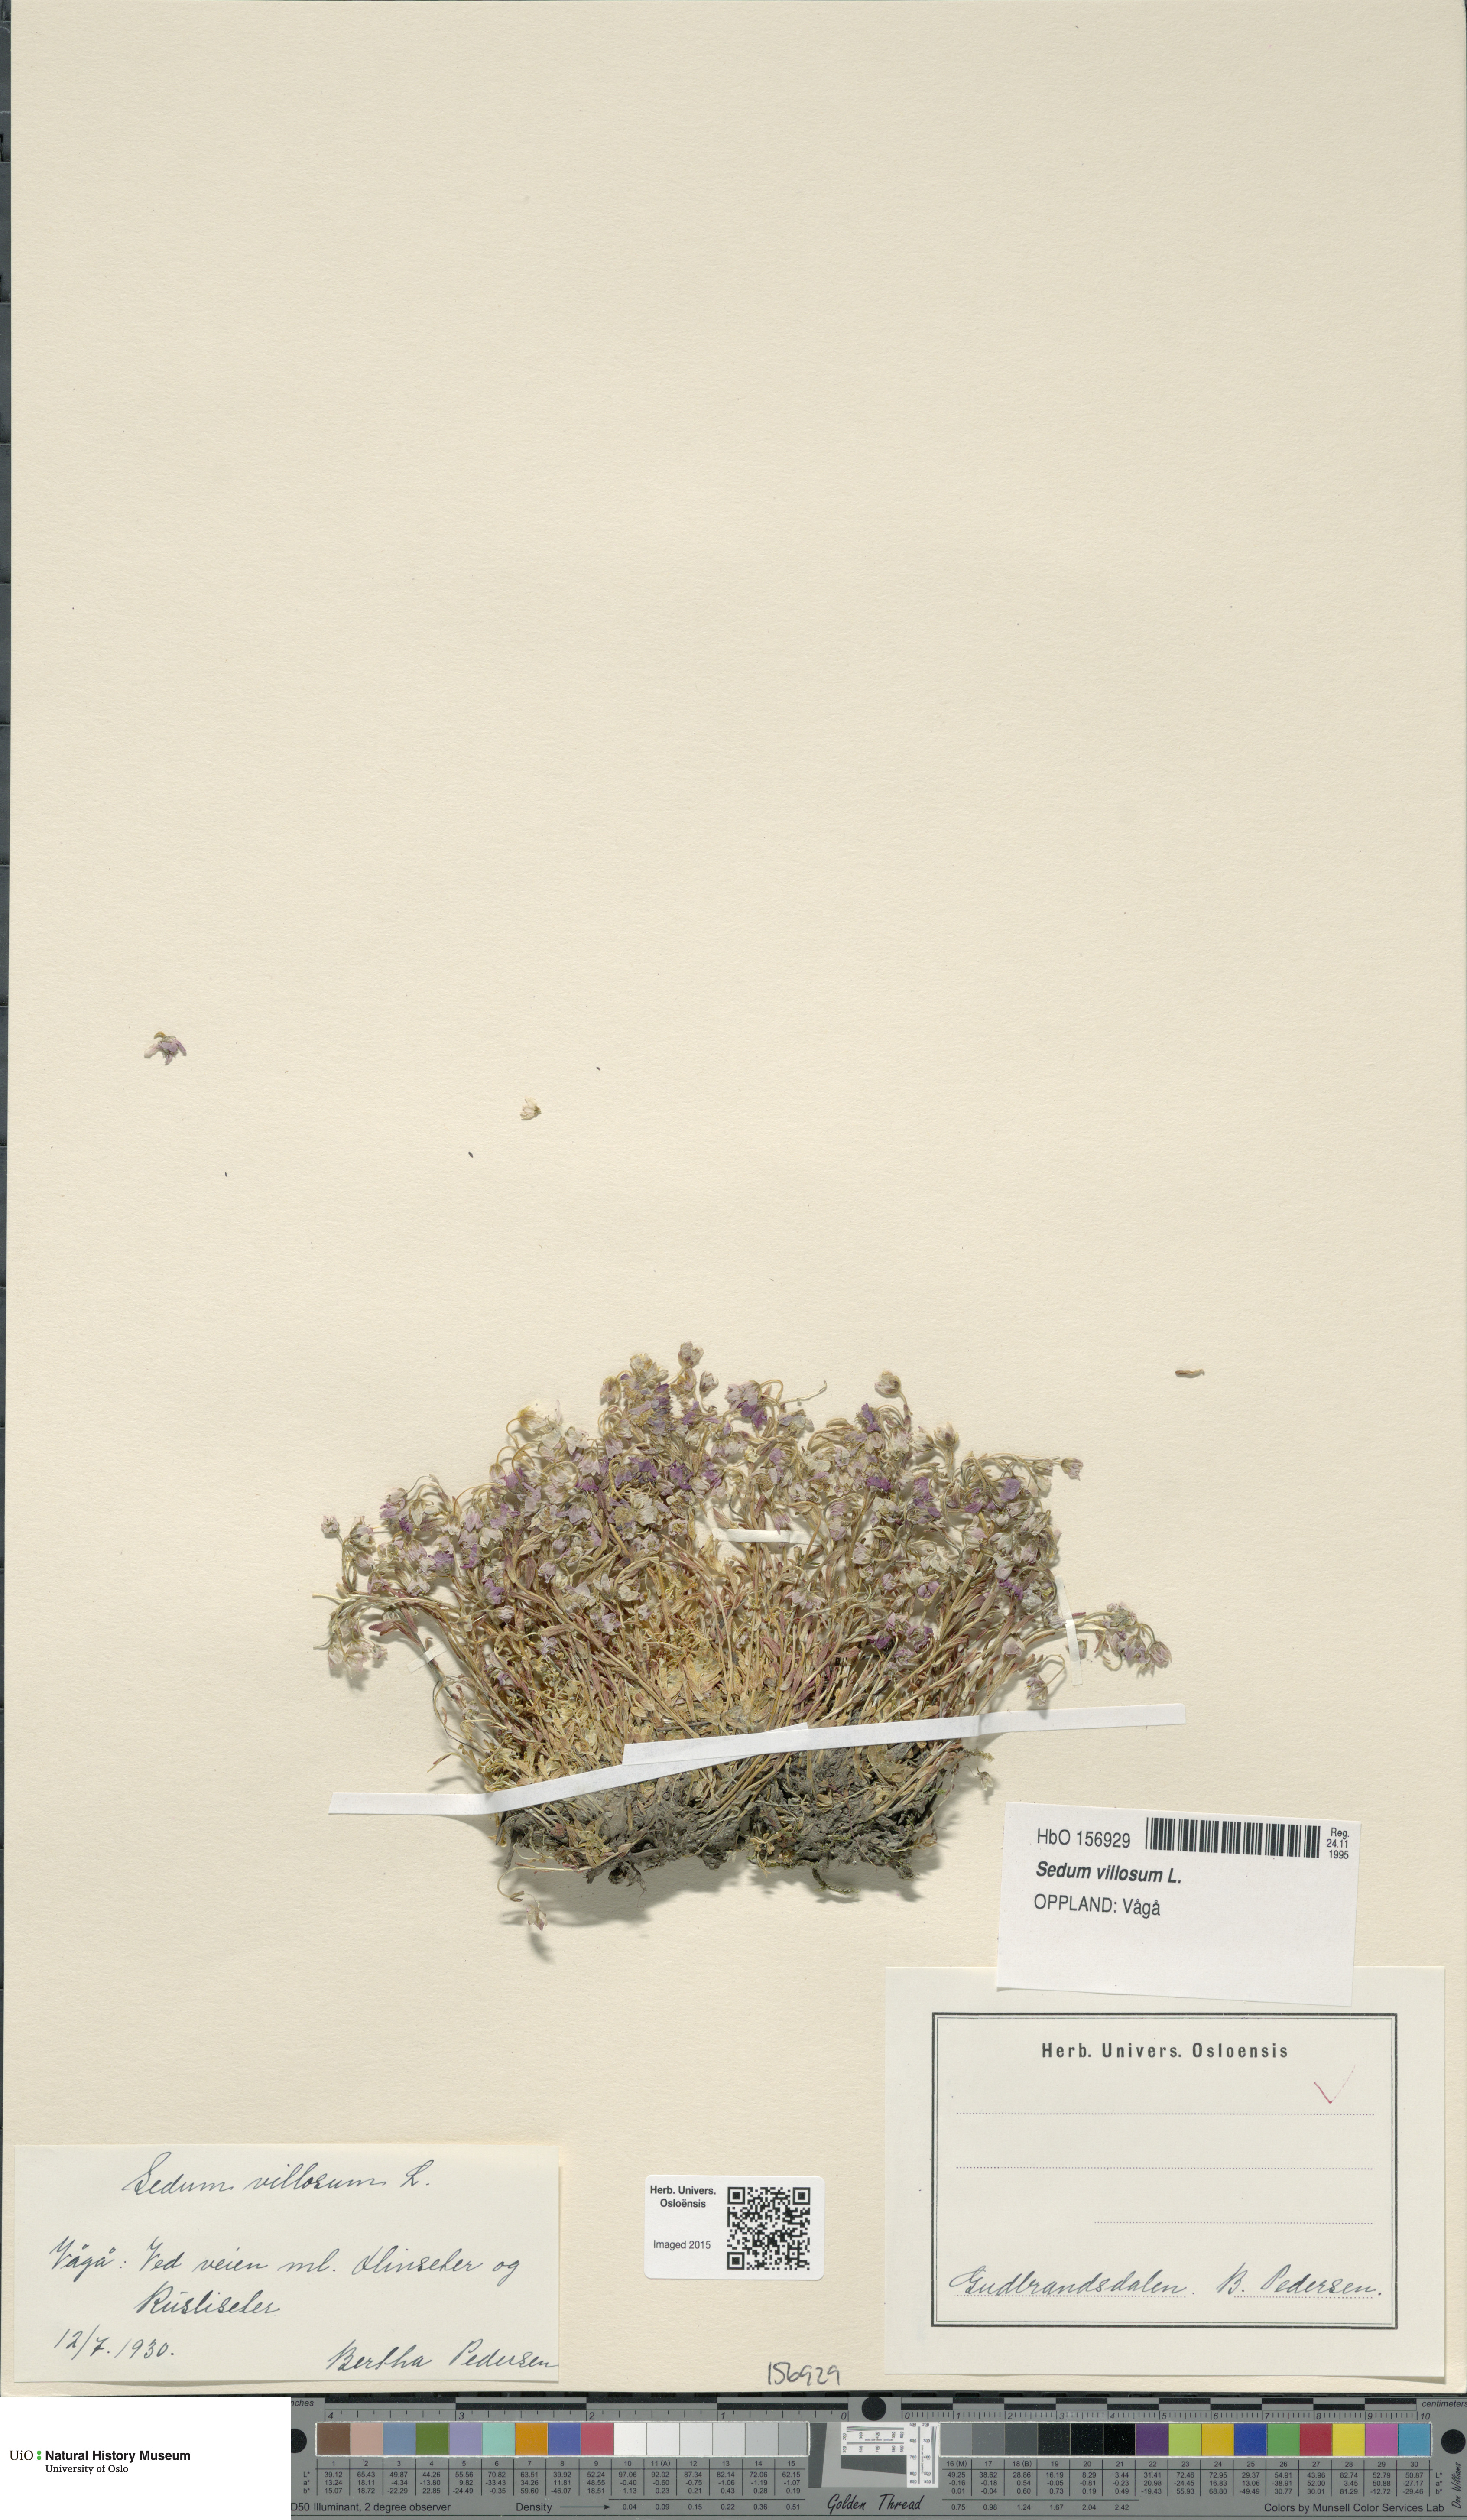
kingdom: Plantae
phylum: Tracheophyta
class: Magnoliopsida
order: Saxifragales
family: Crassulaceae
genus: Sedum
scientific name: Sedum villosum
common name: Hairy stonecrop
